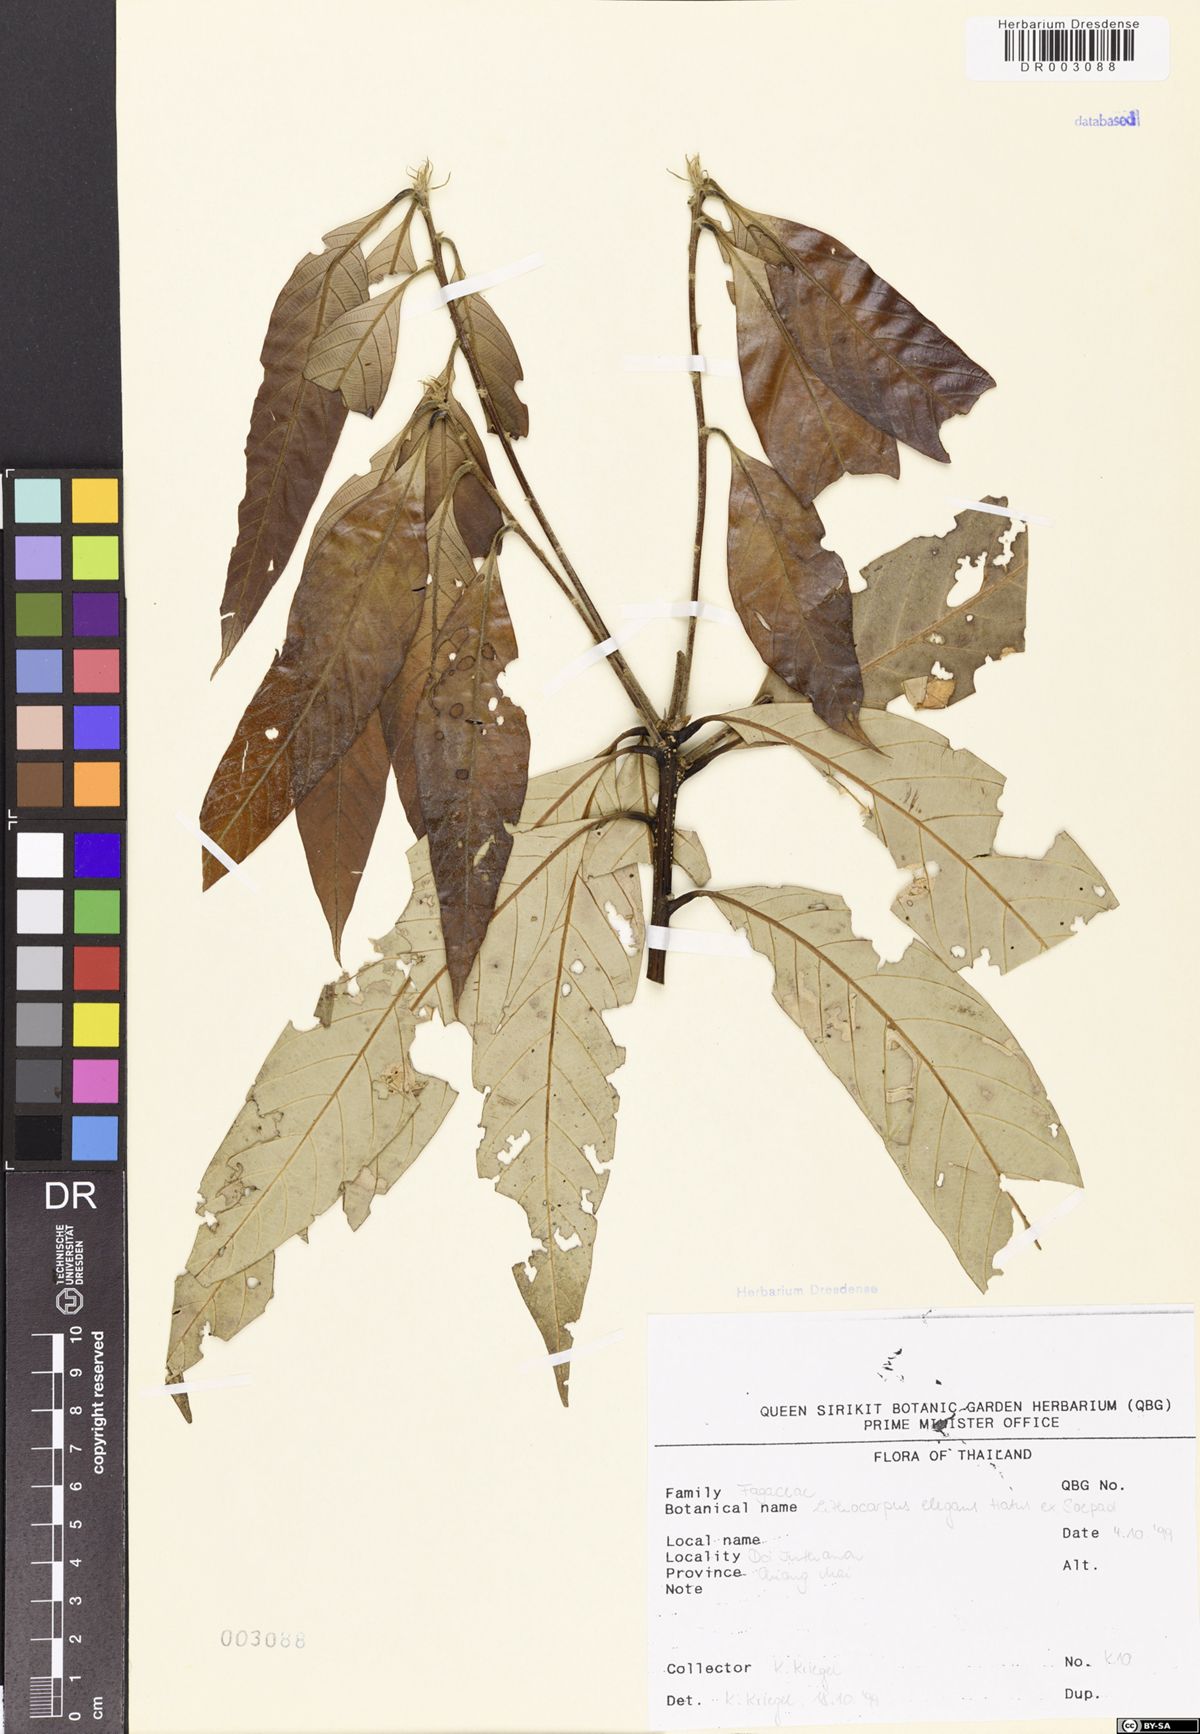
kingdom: Plantae
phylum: Tracheophyta
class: Magnoliopsida
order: Fagales
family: Fagaceae
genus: Lithocarpus
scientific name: Lithocarpus elegans
